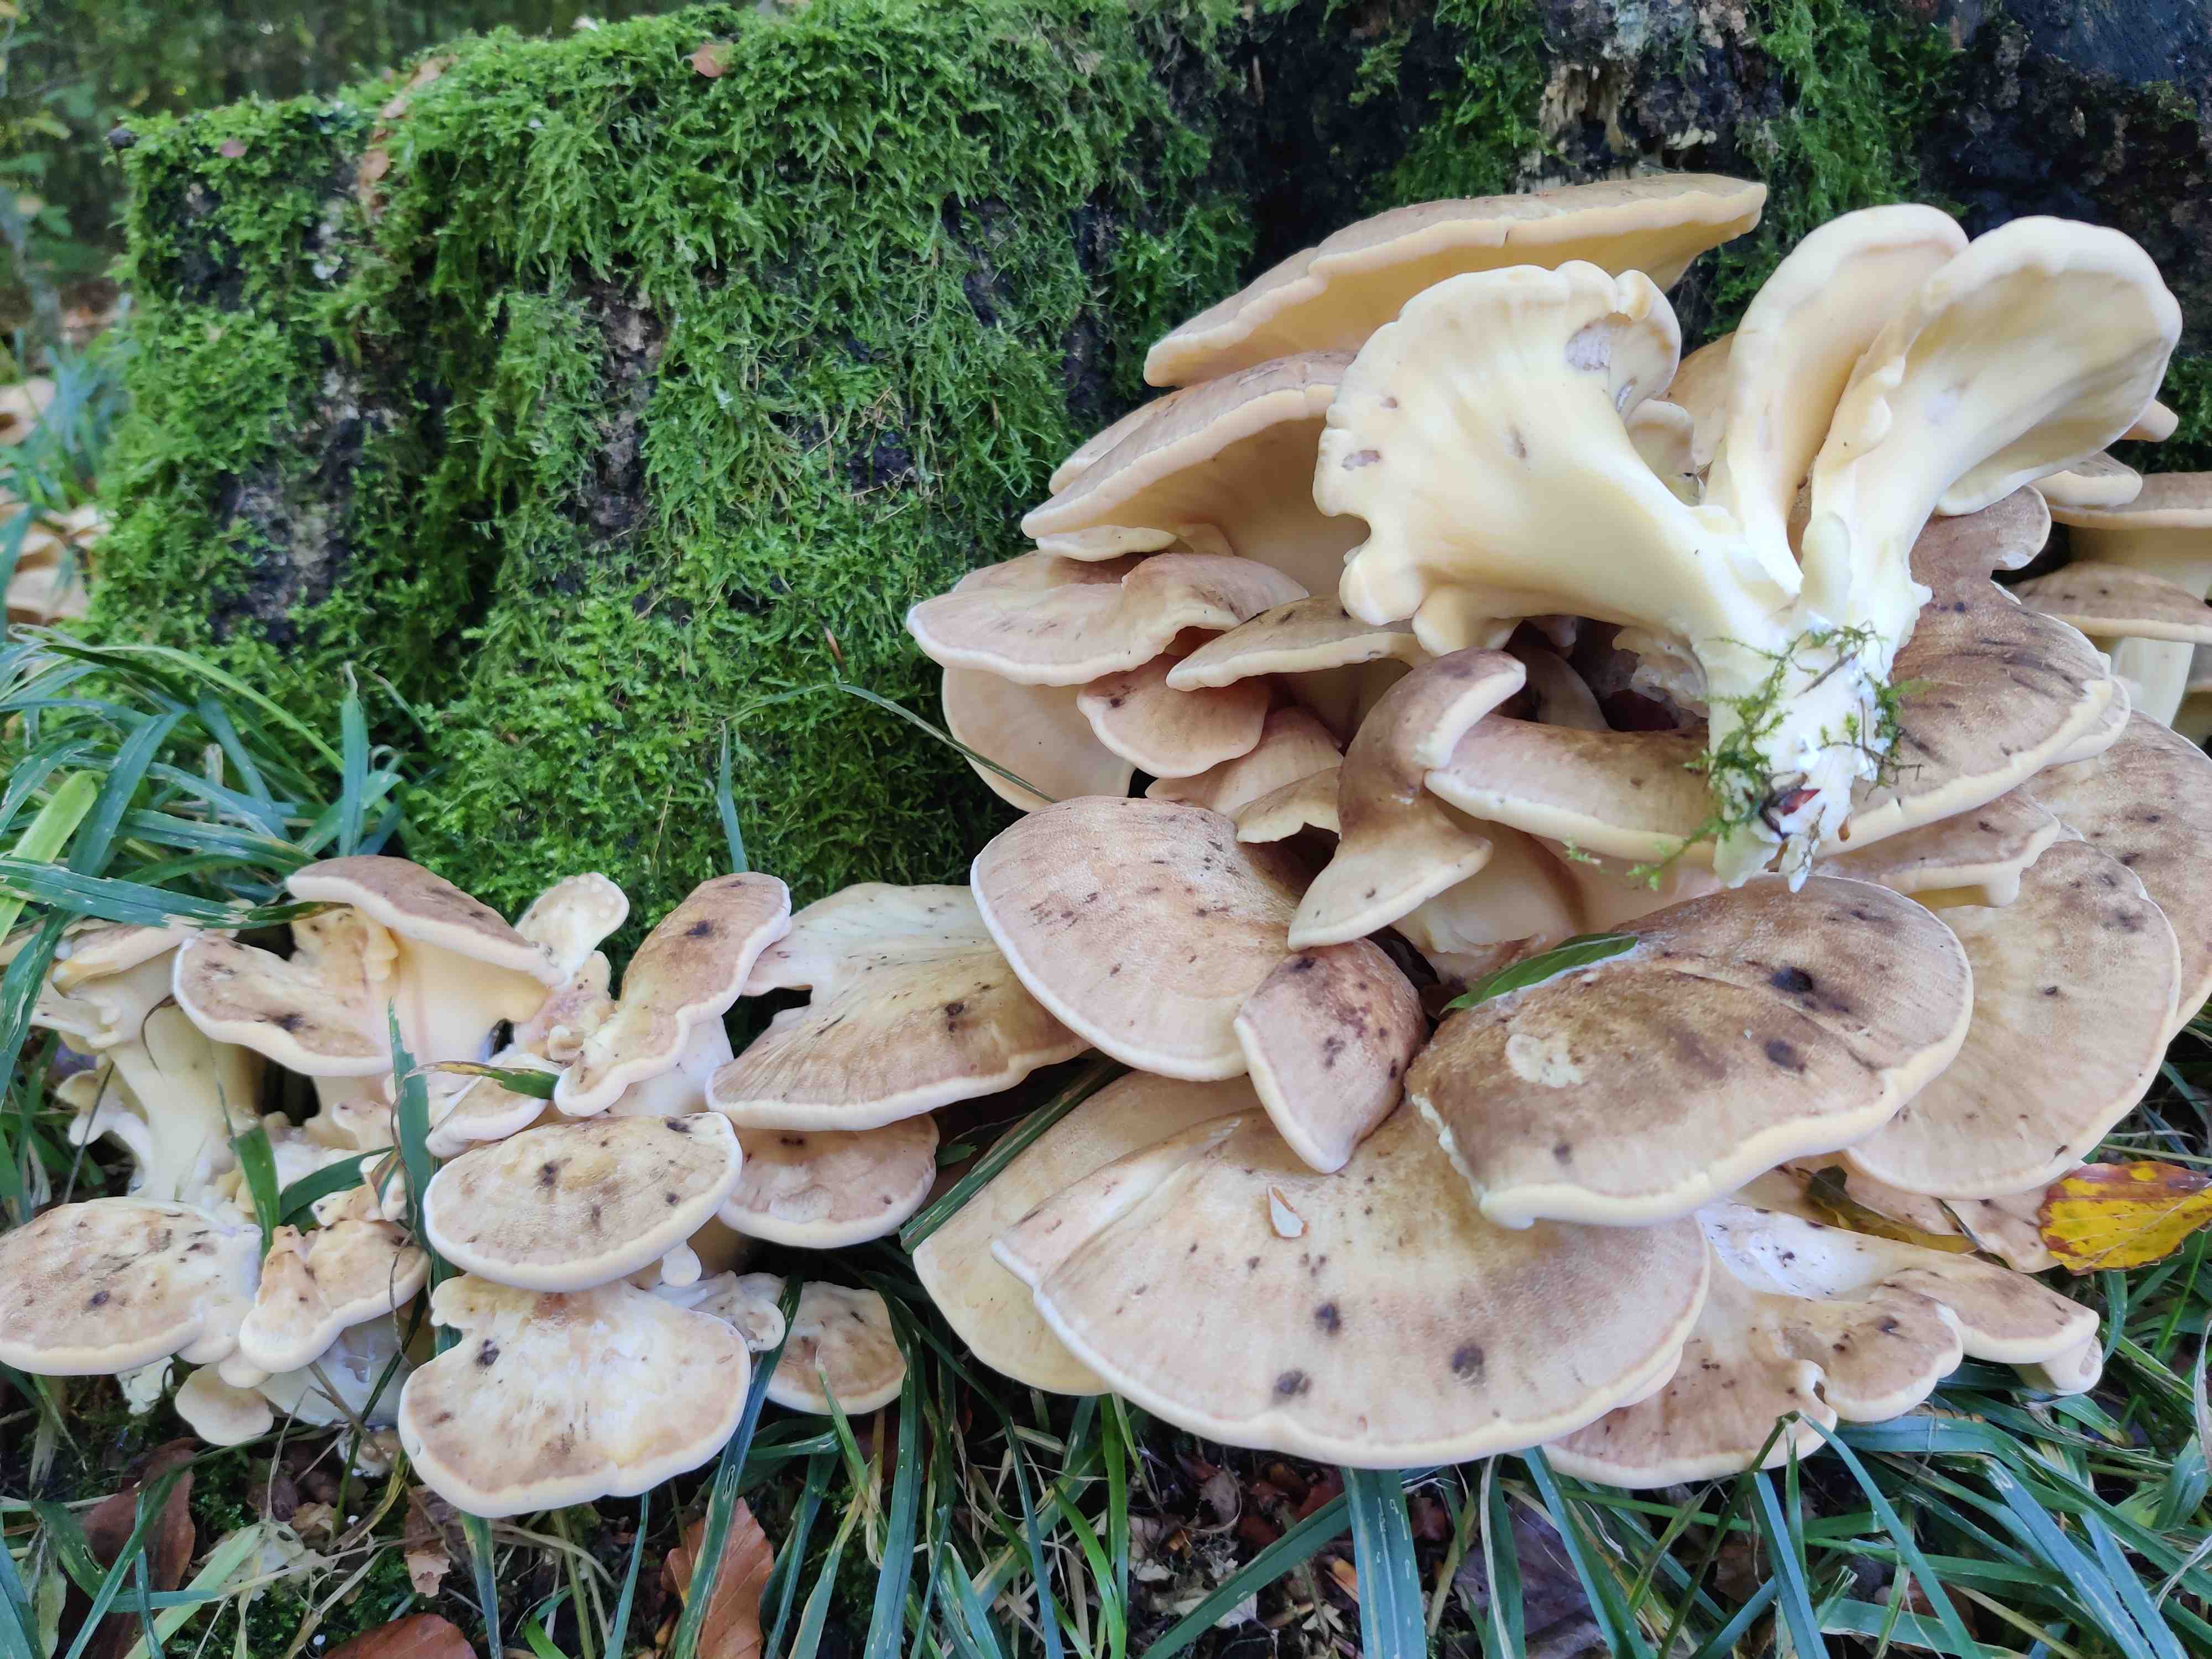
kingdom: Fungi
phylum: Basidiomycota
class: Agaricomycetes
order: Polyporales
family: Meripilaceae
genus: Meripilus
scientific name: Meripilus giganteus
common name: kæmpeporesvamp
